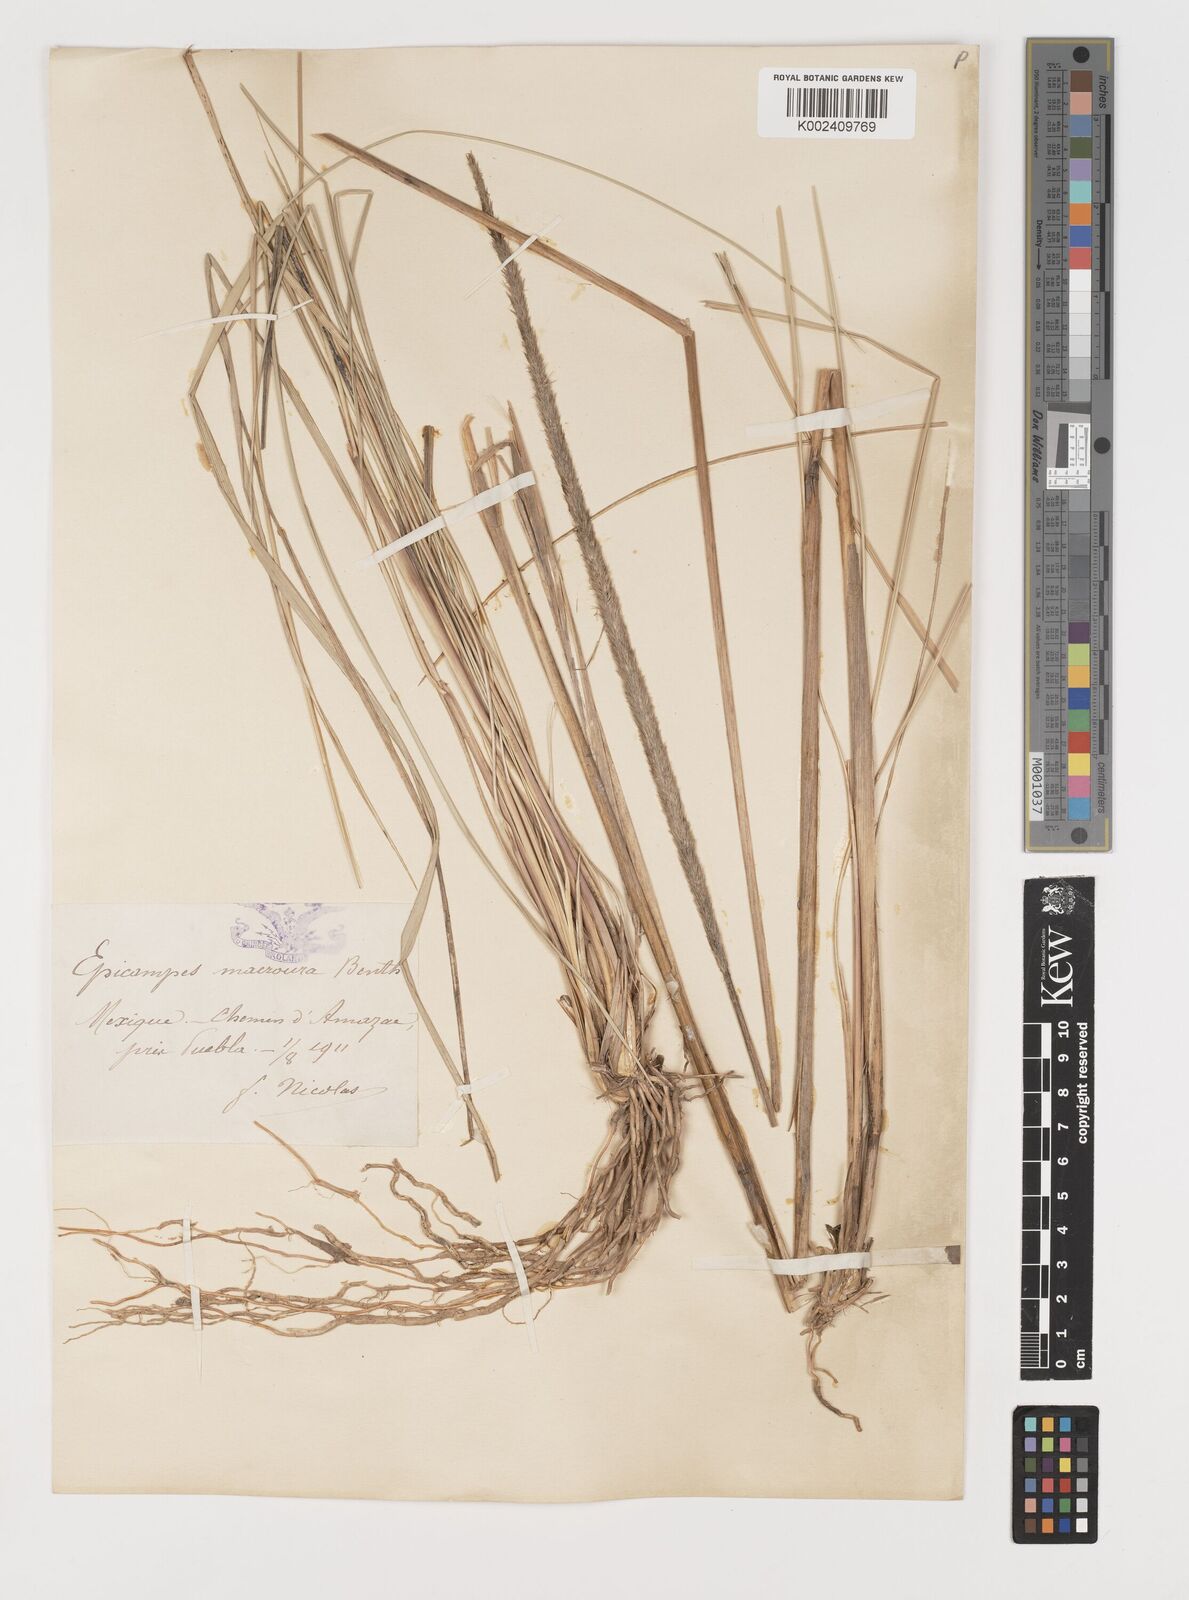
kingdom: Plantae
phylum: Tracheophyta
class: Liliopsida
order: Poales
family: Poaceae
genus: Muhlenbergia
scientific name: Muhlenbergia macroura
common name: Mexican broomroot
